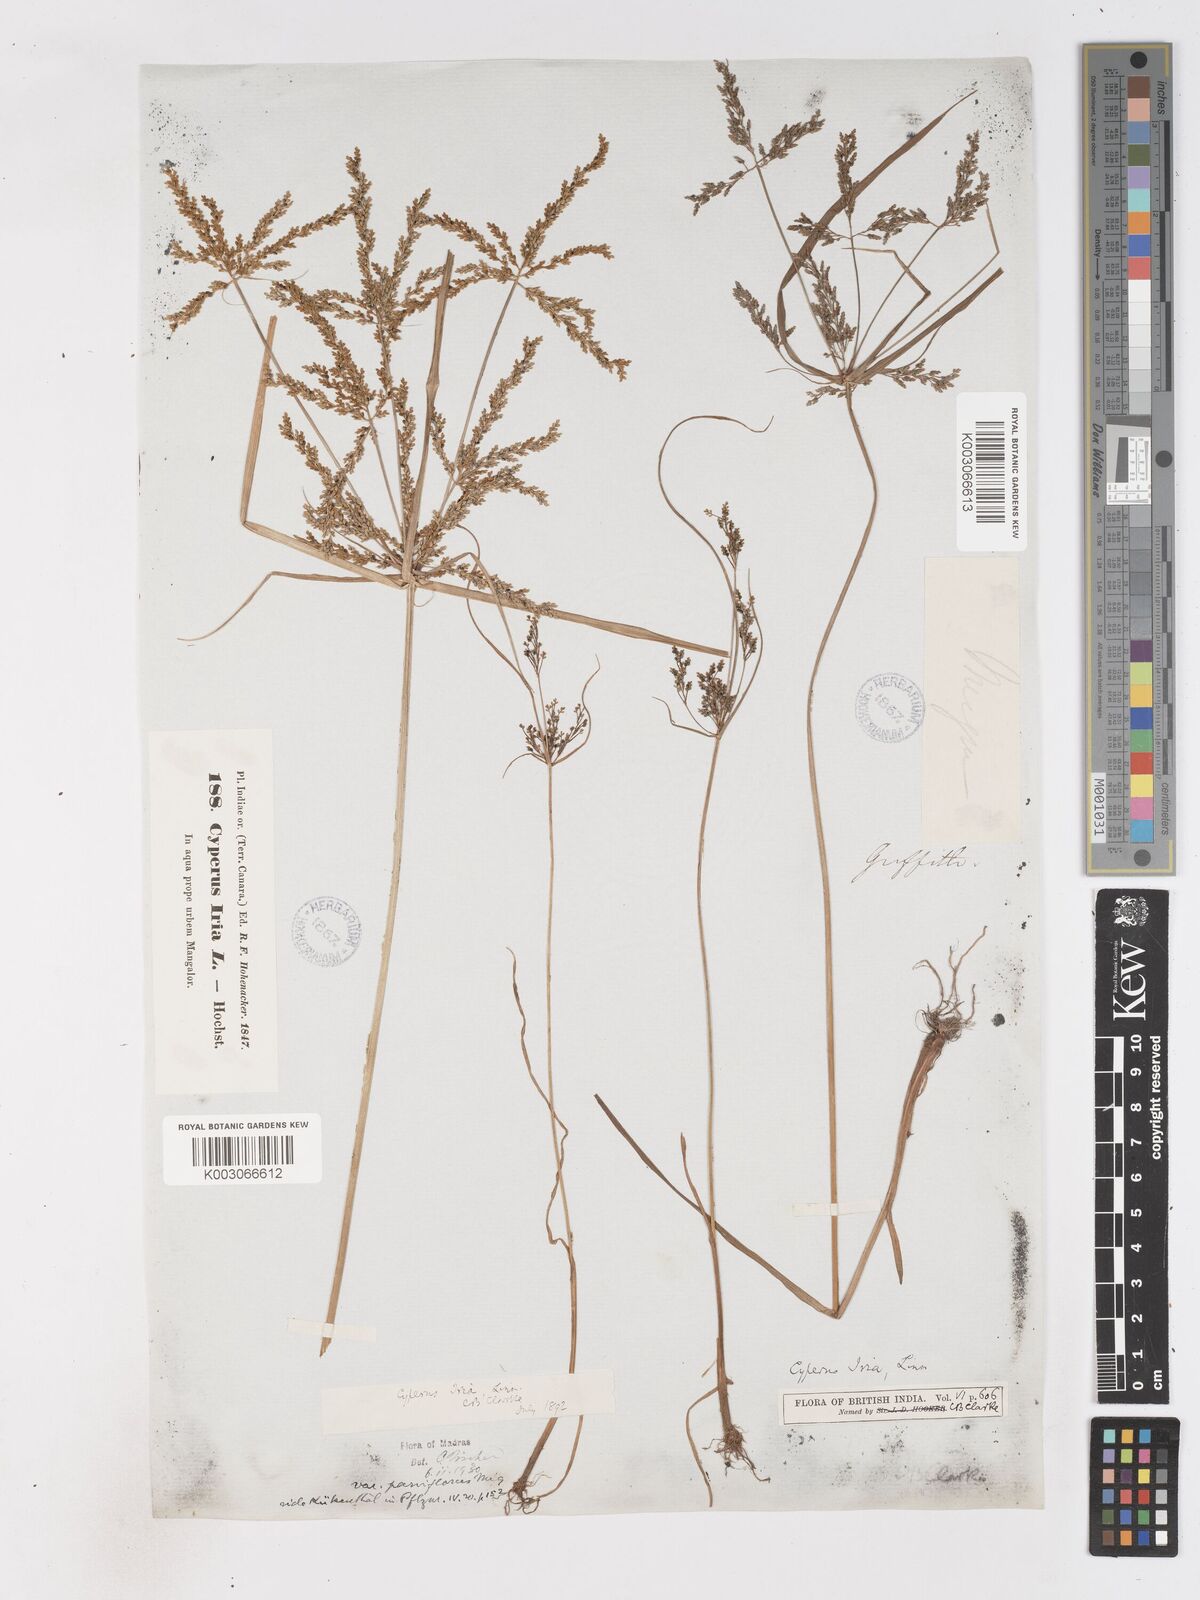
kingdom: Plantae
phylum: Tracheophyta
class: Liliopsida
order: Poales
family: Cyperaceae
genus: Cyperus
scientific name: Cyperus microiria
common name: Asian flatsedge
